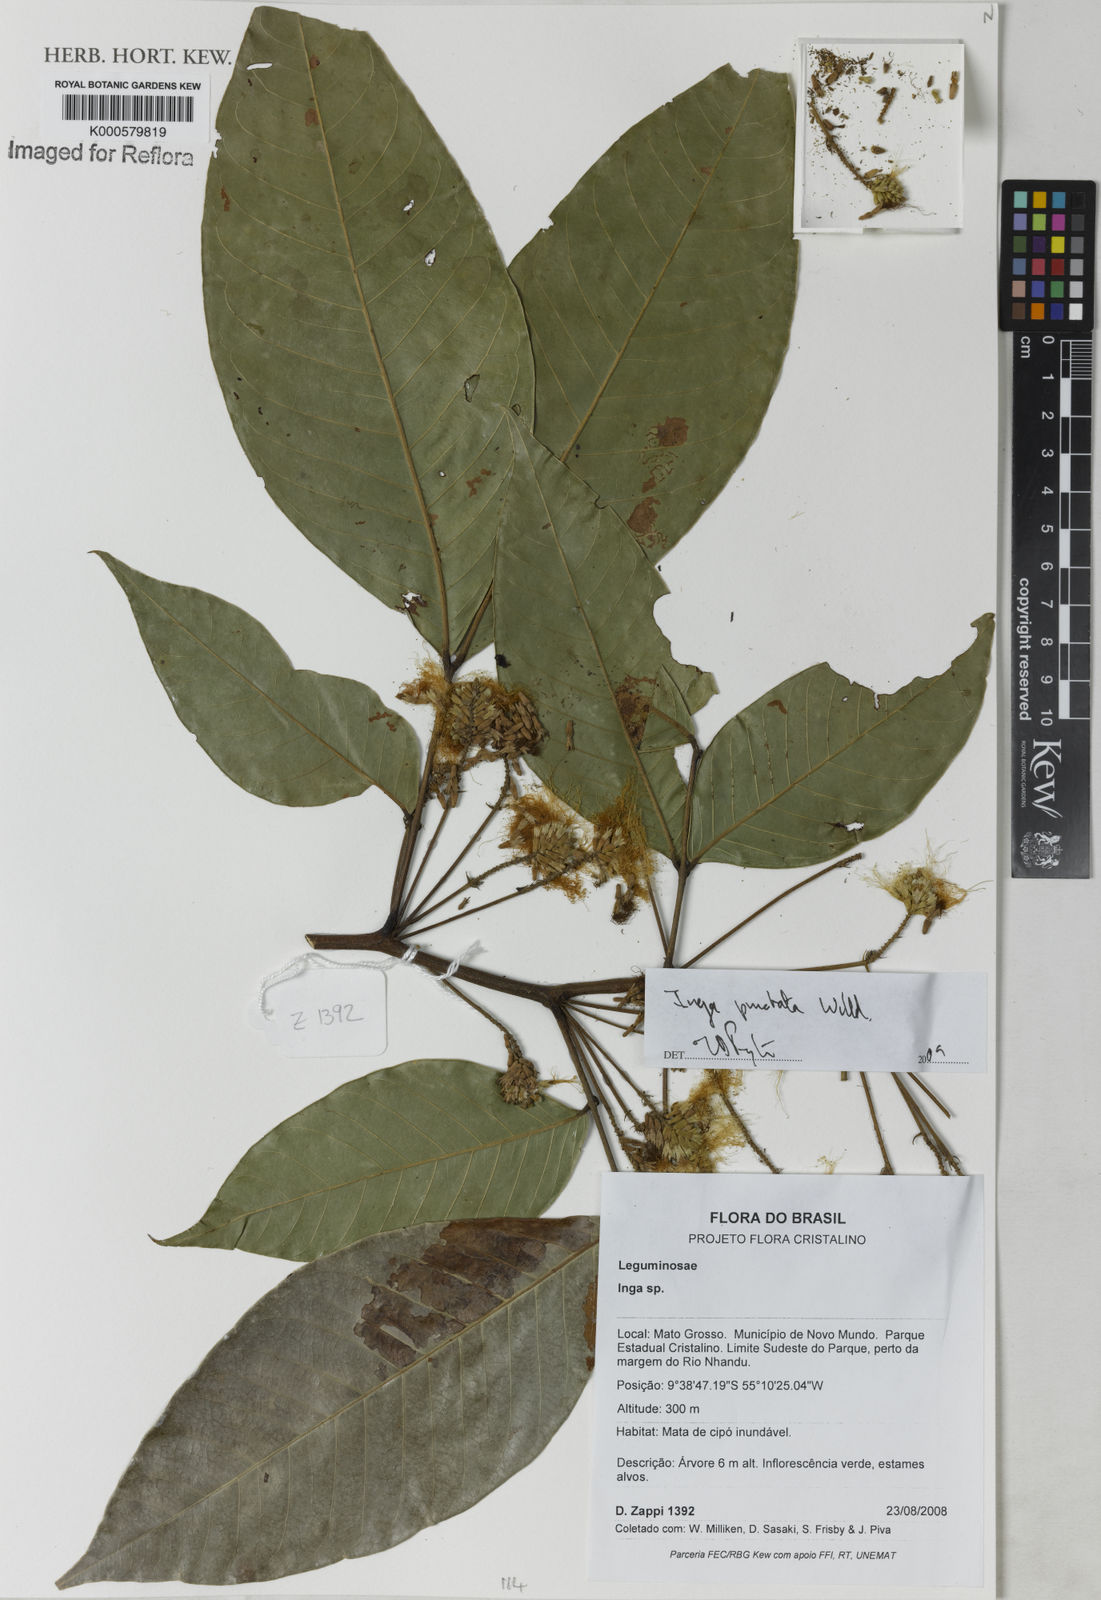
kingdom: Plantae
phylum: Tracheophyta
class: Magnoliopsida
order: Fabales
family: Fabaceae
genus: Inga
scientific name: Inga punctata
